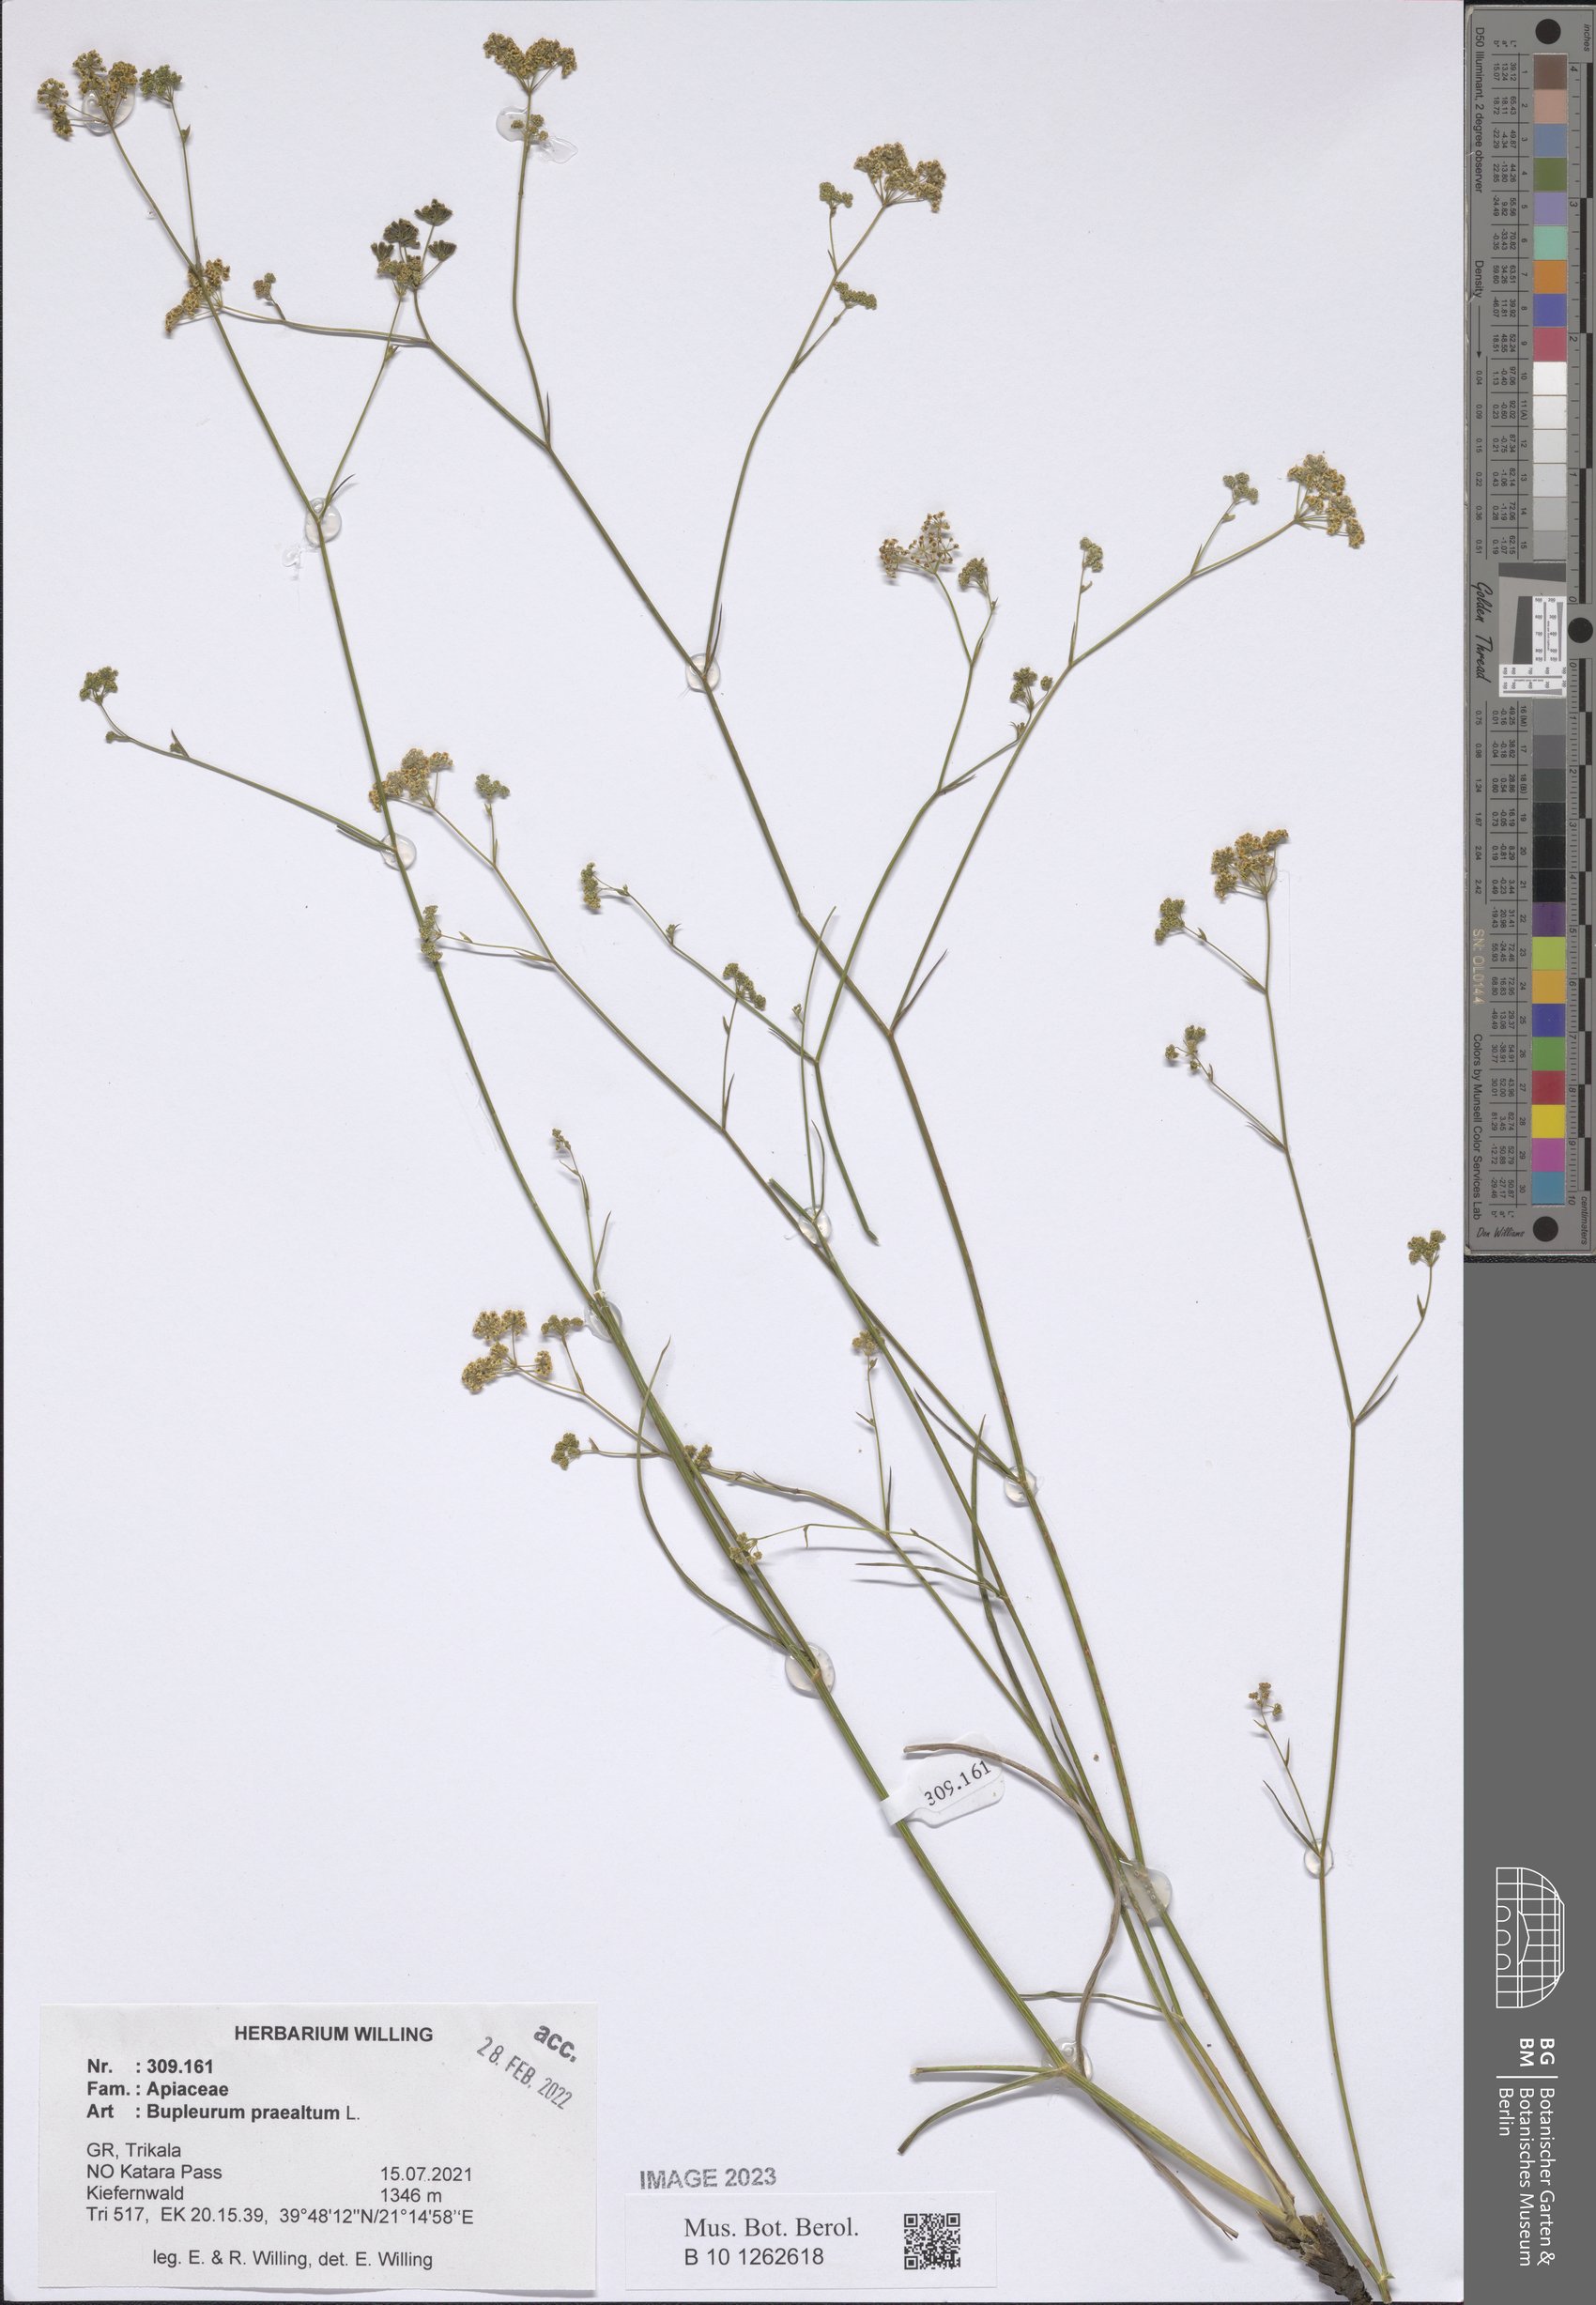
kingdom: Plantae
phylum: Tracheophyta
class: Magnoliopsida
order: Apiales
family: Apiaceae
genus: Bupleurum
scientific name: Bupleurum praealtum
